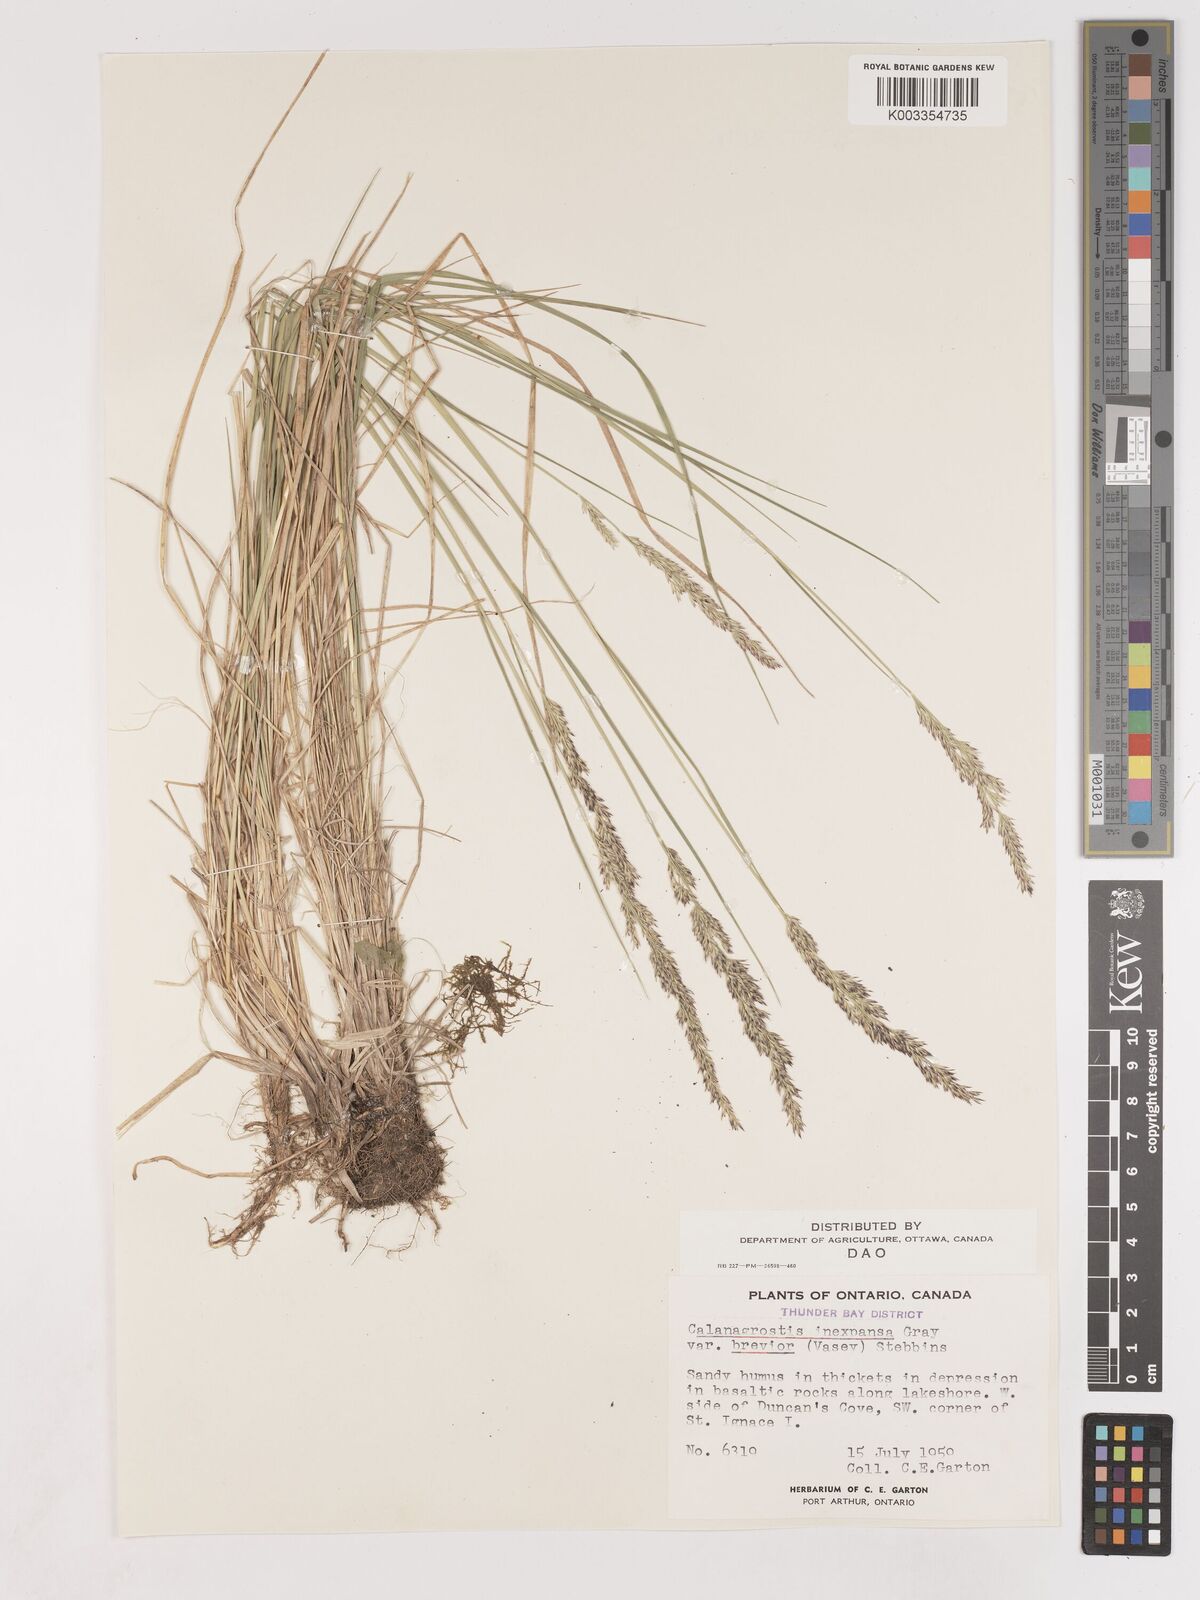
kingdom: Plantae
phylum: Tracheophyta
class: Liliopsida
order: Poales
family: Poaceae
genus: Cinnagrostis
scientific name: Cinnagrostis recta
